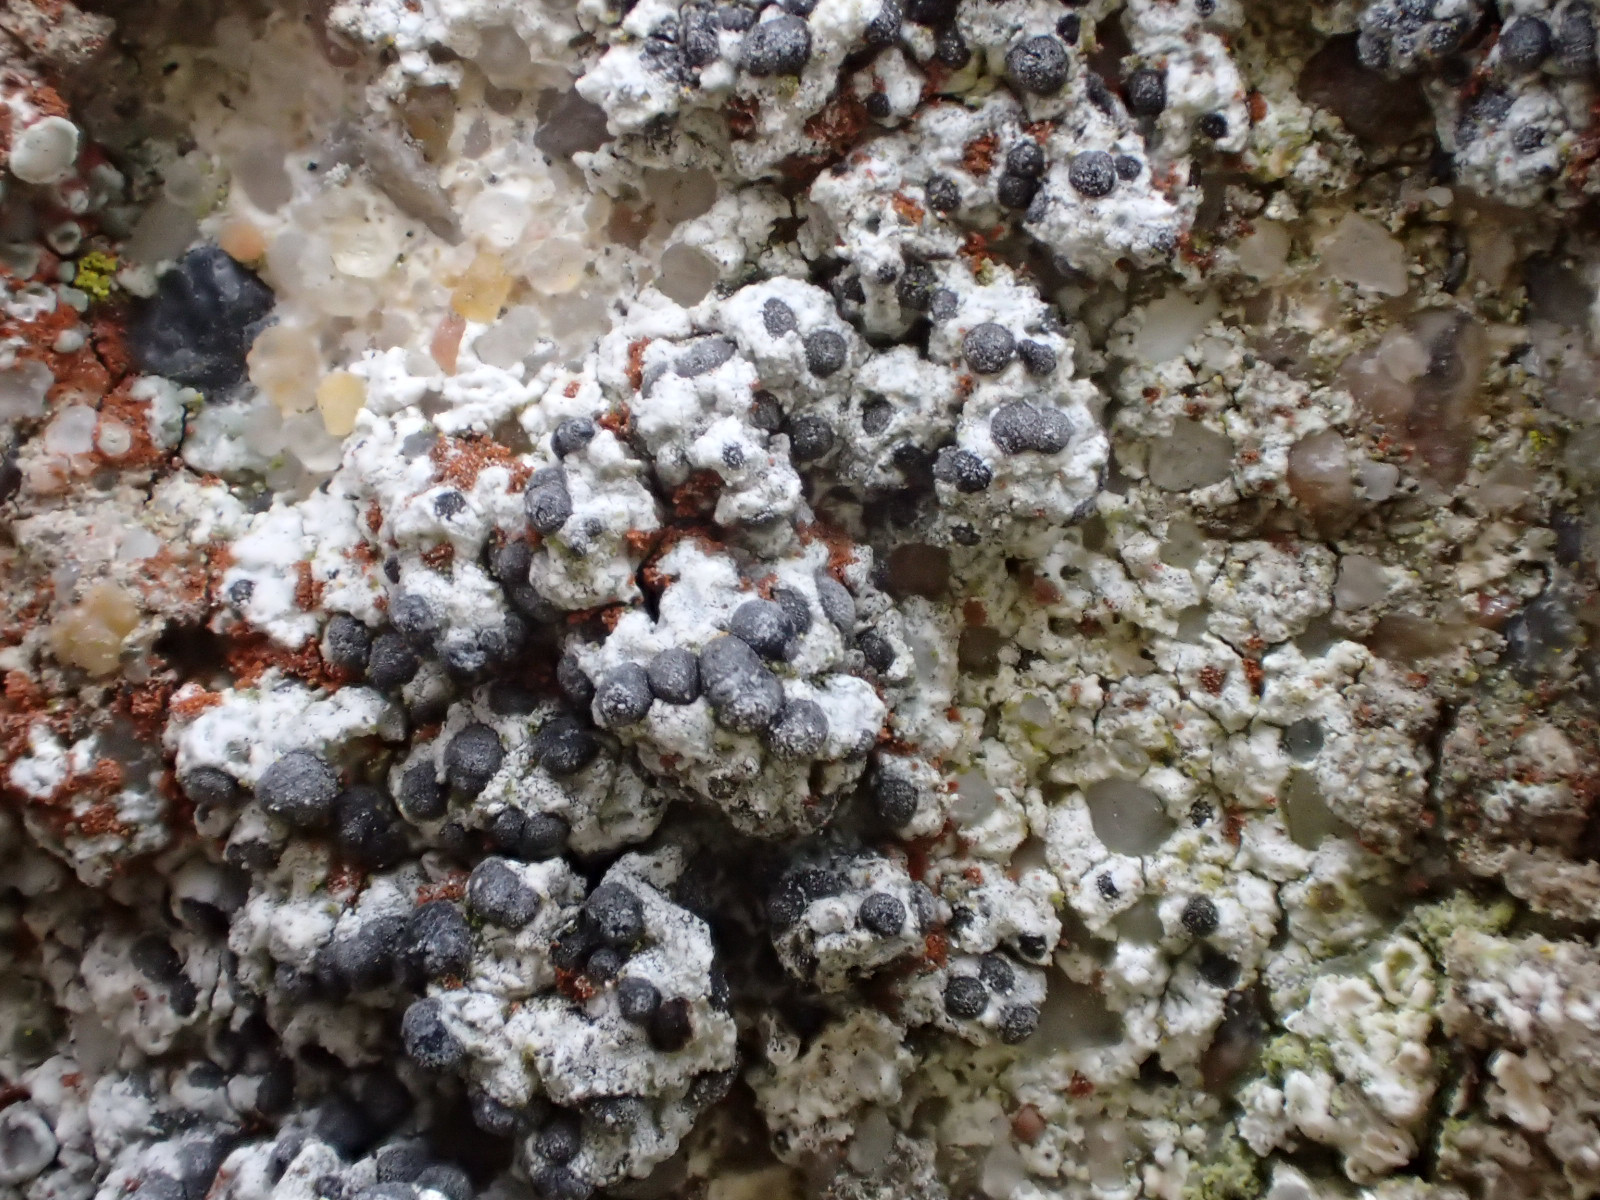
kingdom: Fungi
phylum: Ascomycota
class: Lecanoromycetes
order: Caliciales
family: Caliciaceae
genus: Diplotomma
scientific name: Diplotomma alboatrum
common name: sorthvid sortskivelav
